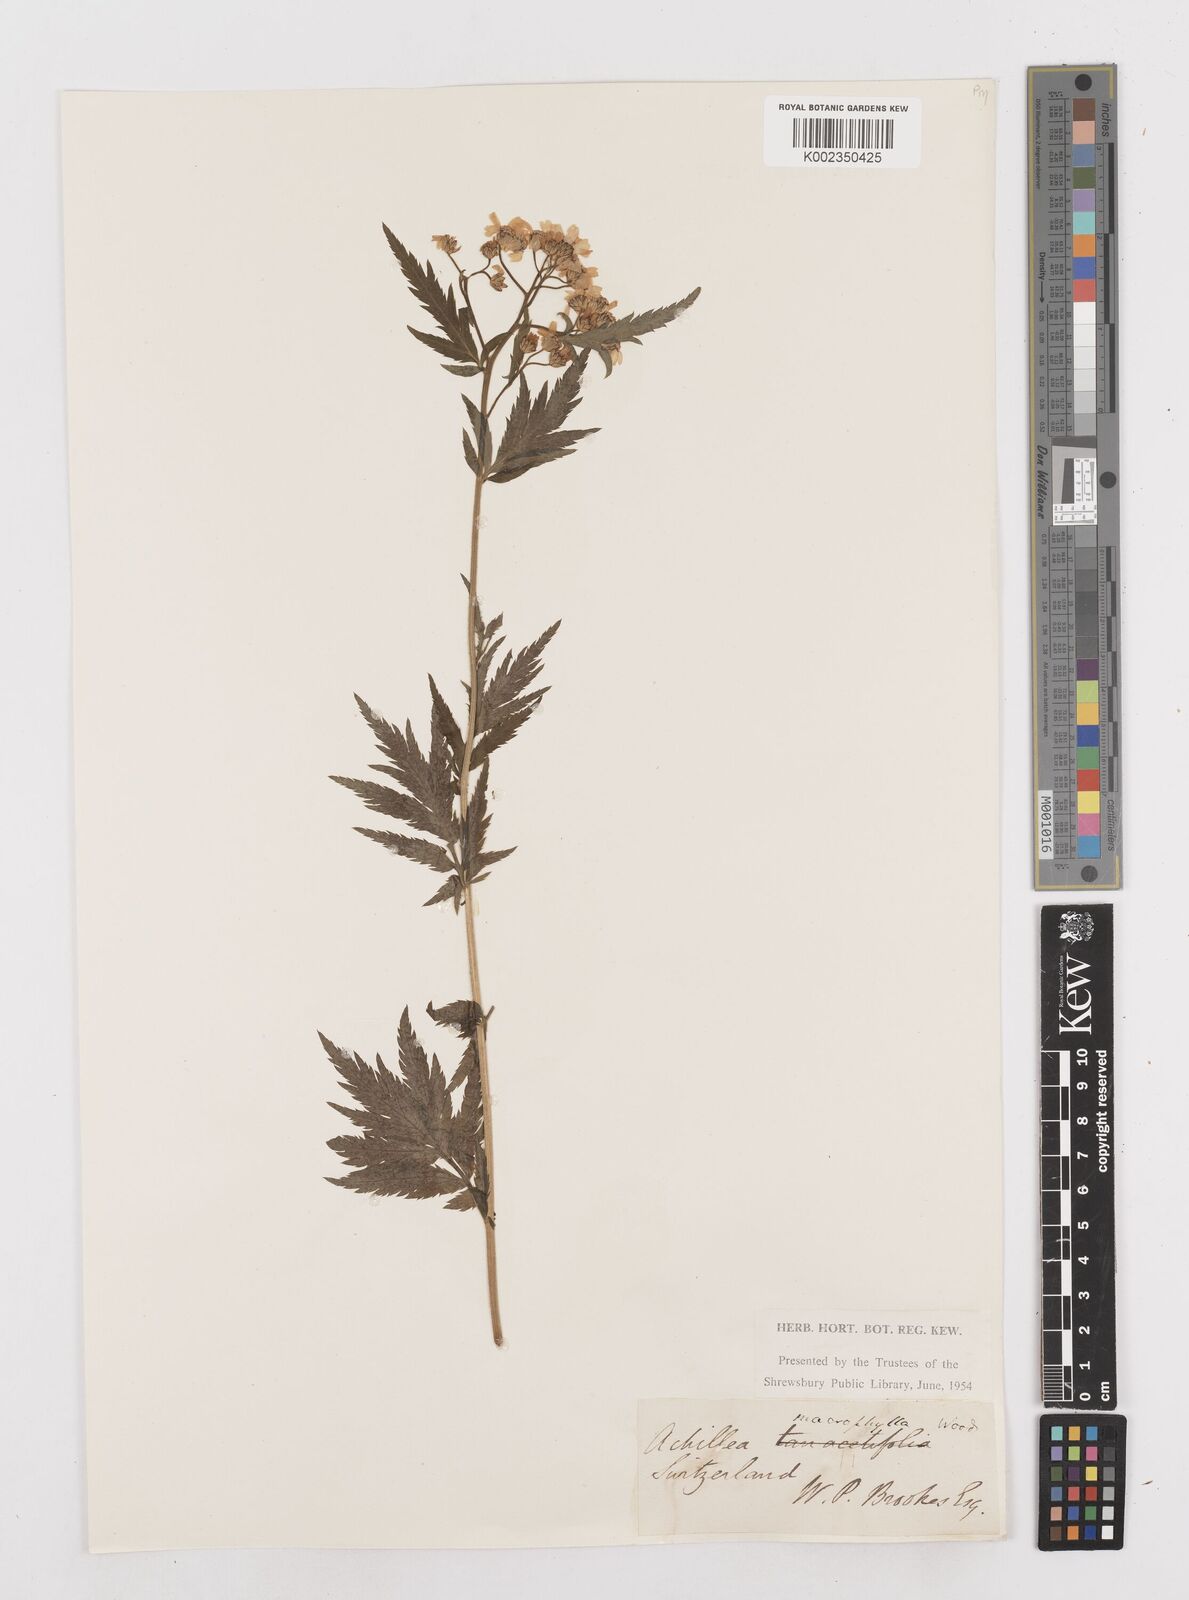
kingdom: Plantae
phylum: Tracheophyta
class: Magnoliopsida
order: Asterales
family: Asteraceae
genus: Achillea
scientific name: Achillea macrophylla
